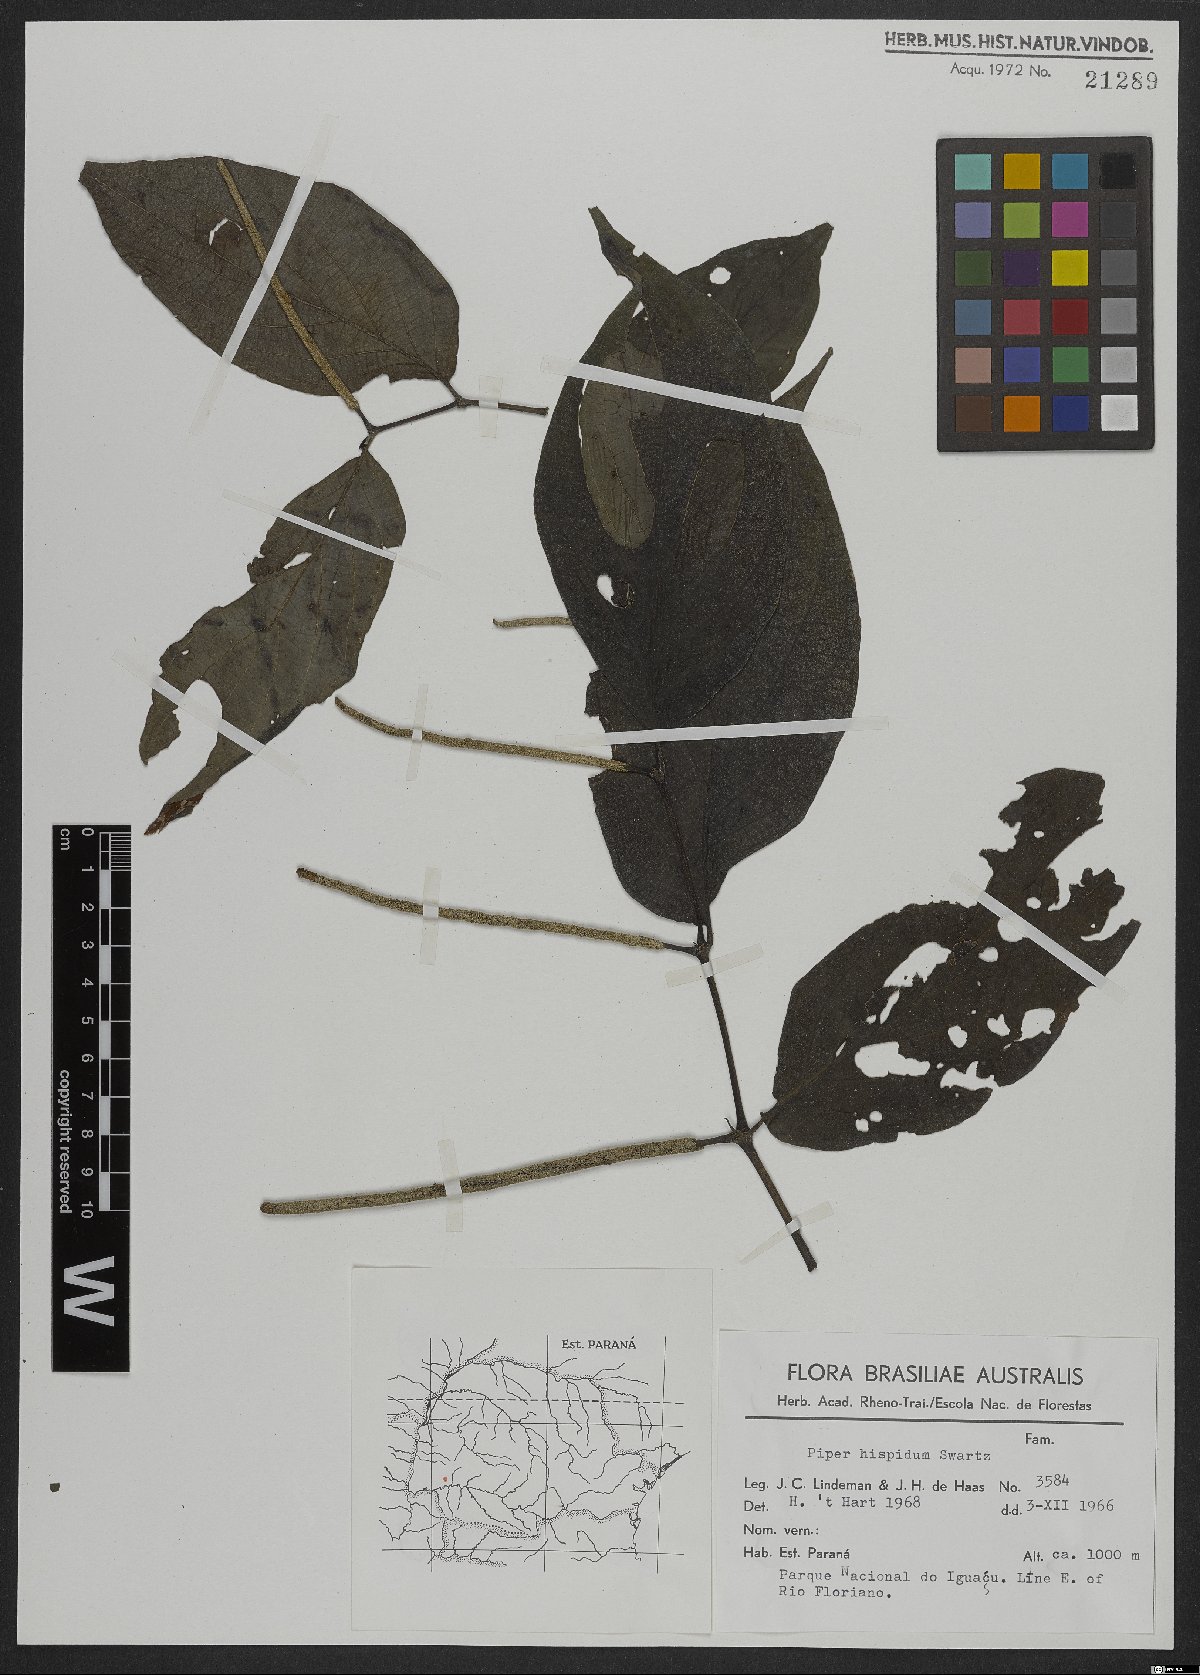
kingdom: Plantae
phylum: Tracheophyta
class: Magnoliopsida
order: Piperales
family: Piperaceae
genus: Piper
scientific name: Piper hispidum
